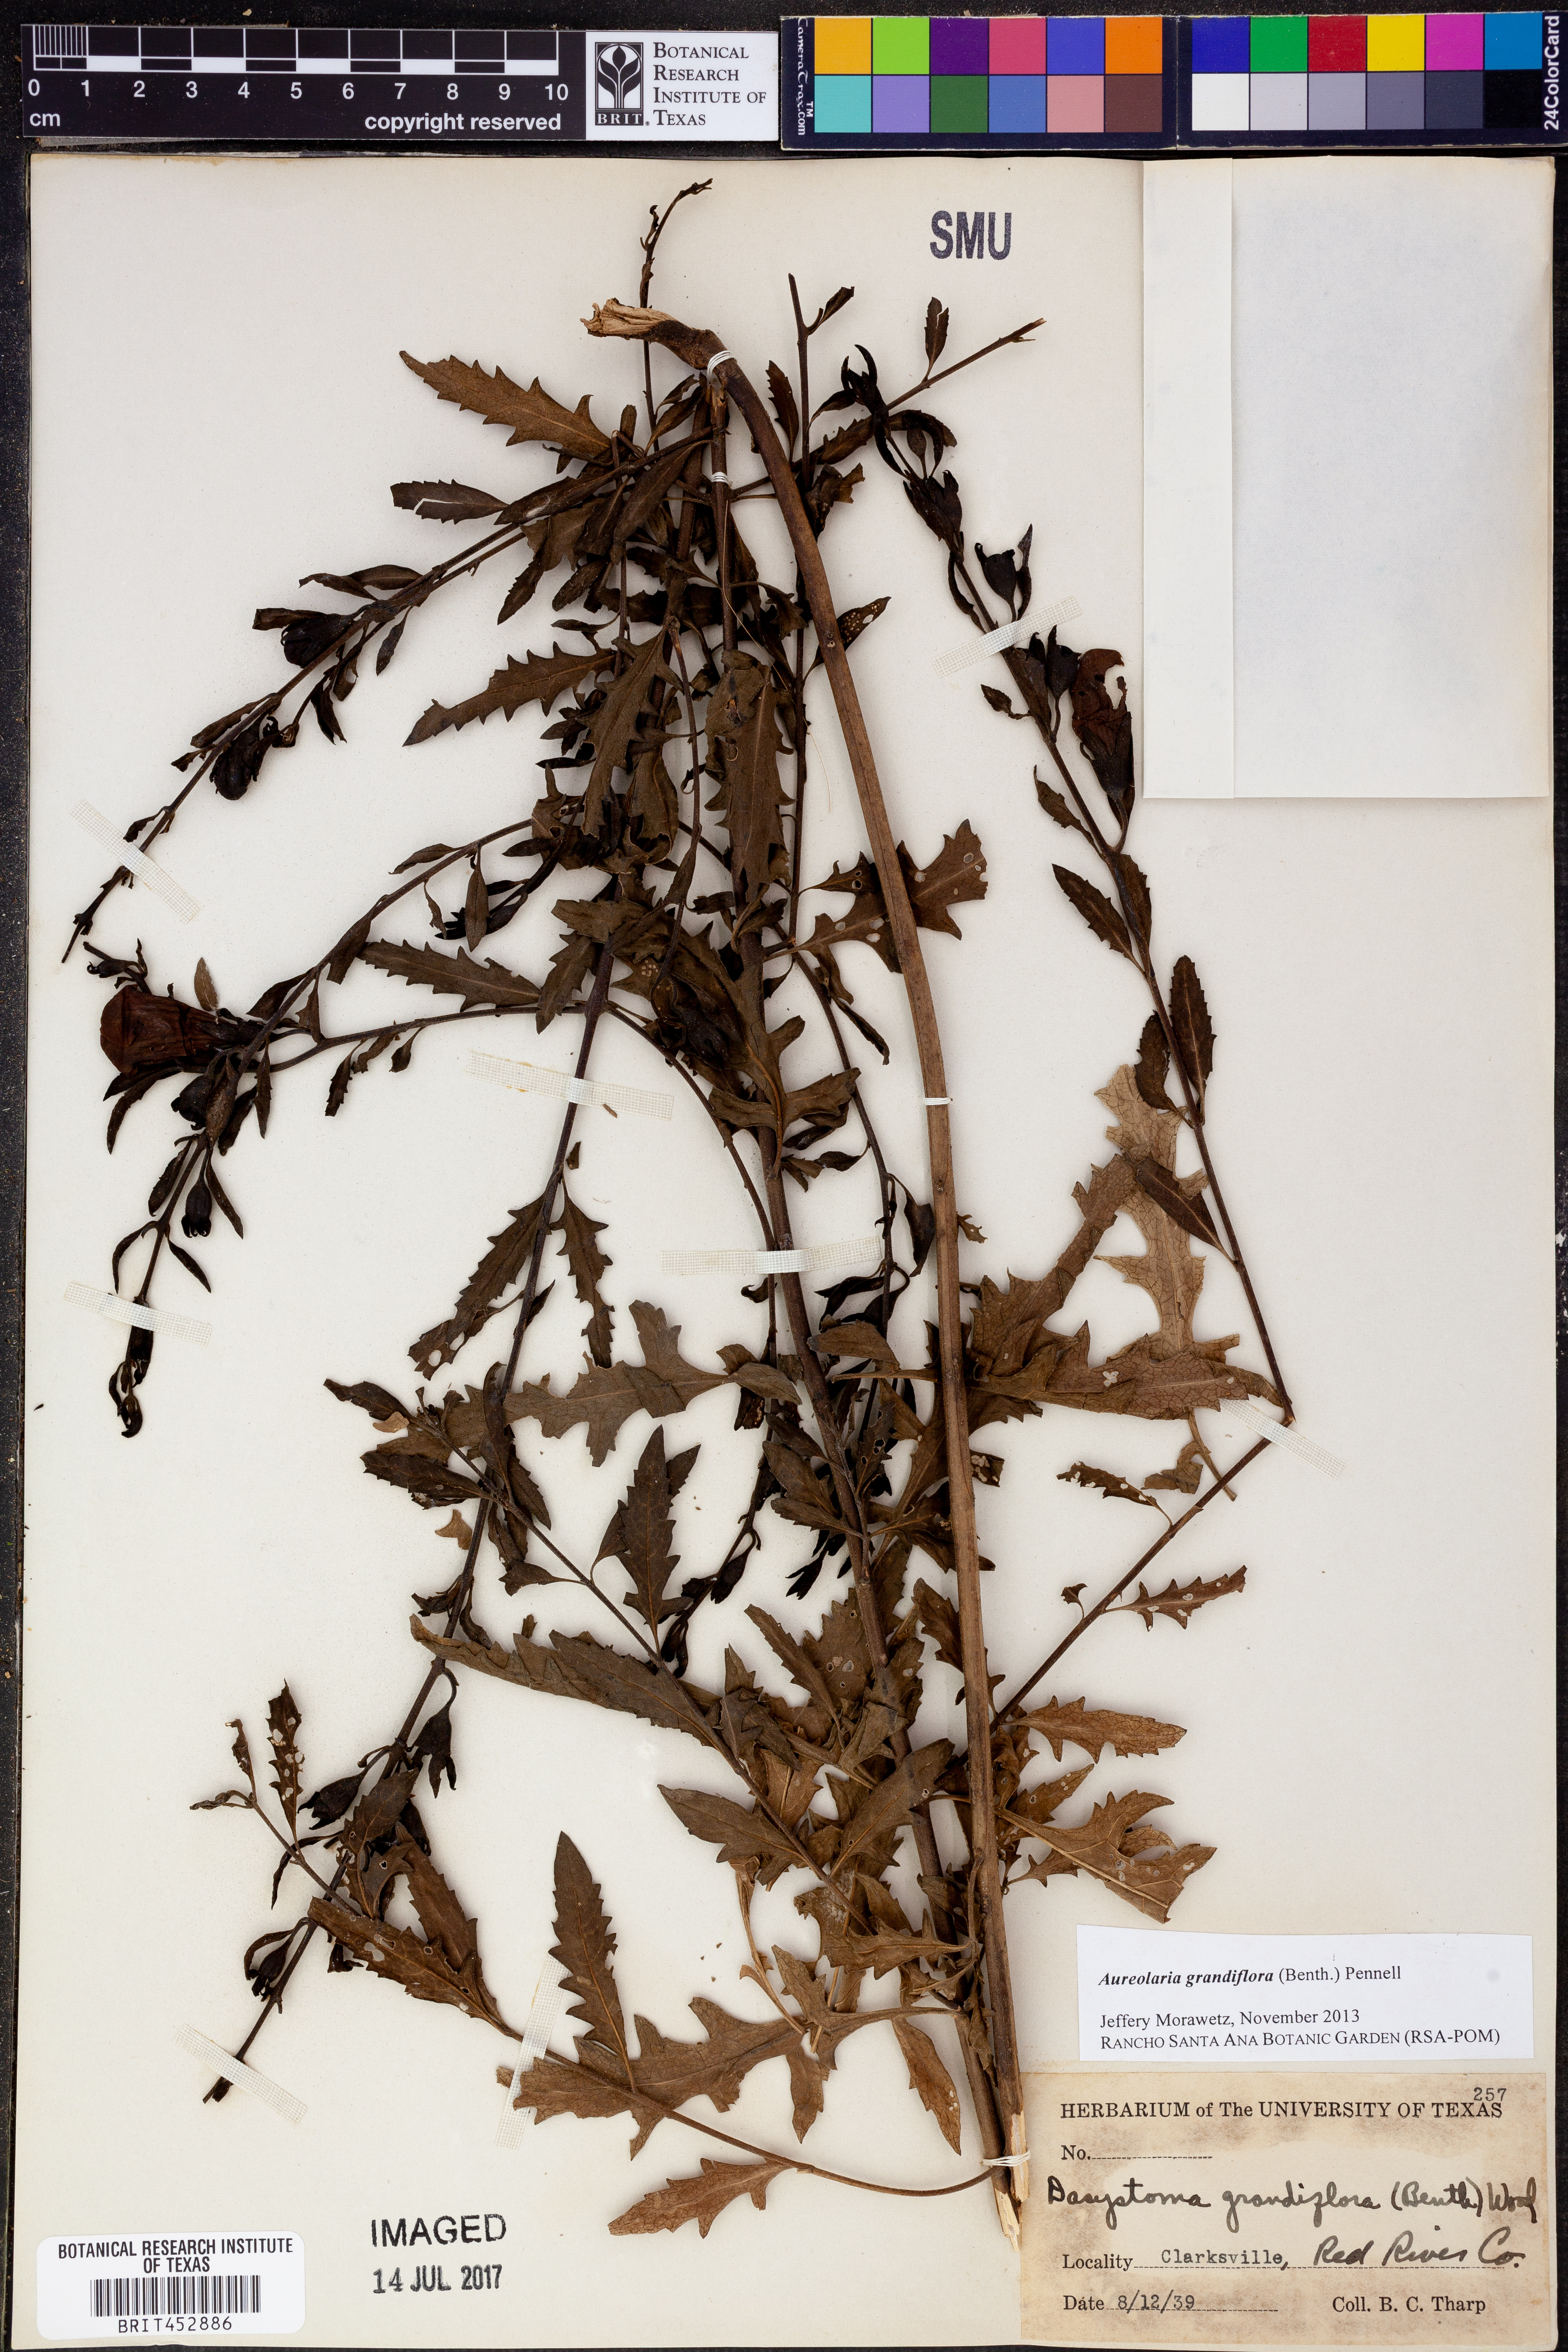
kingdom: Plantae
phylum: Tracheophyta
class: Magnoliopsida
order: Lamiales
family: Orobanchaceae
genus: Aureolaria
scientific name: Aureolaria grandiflora
